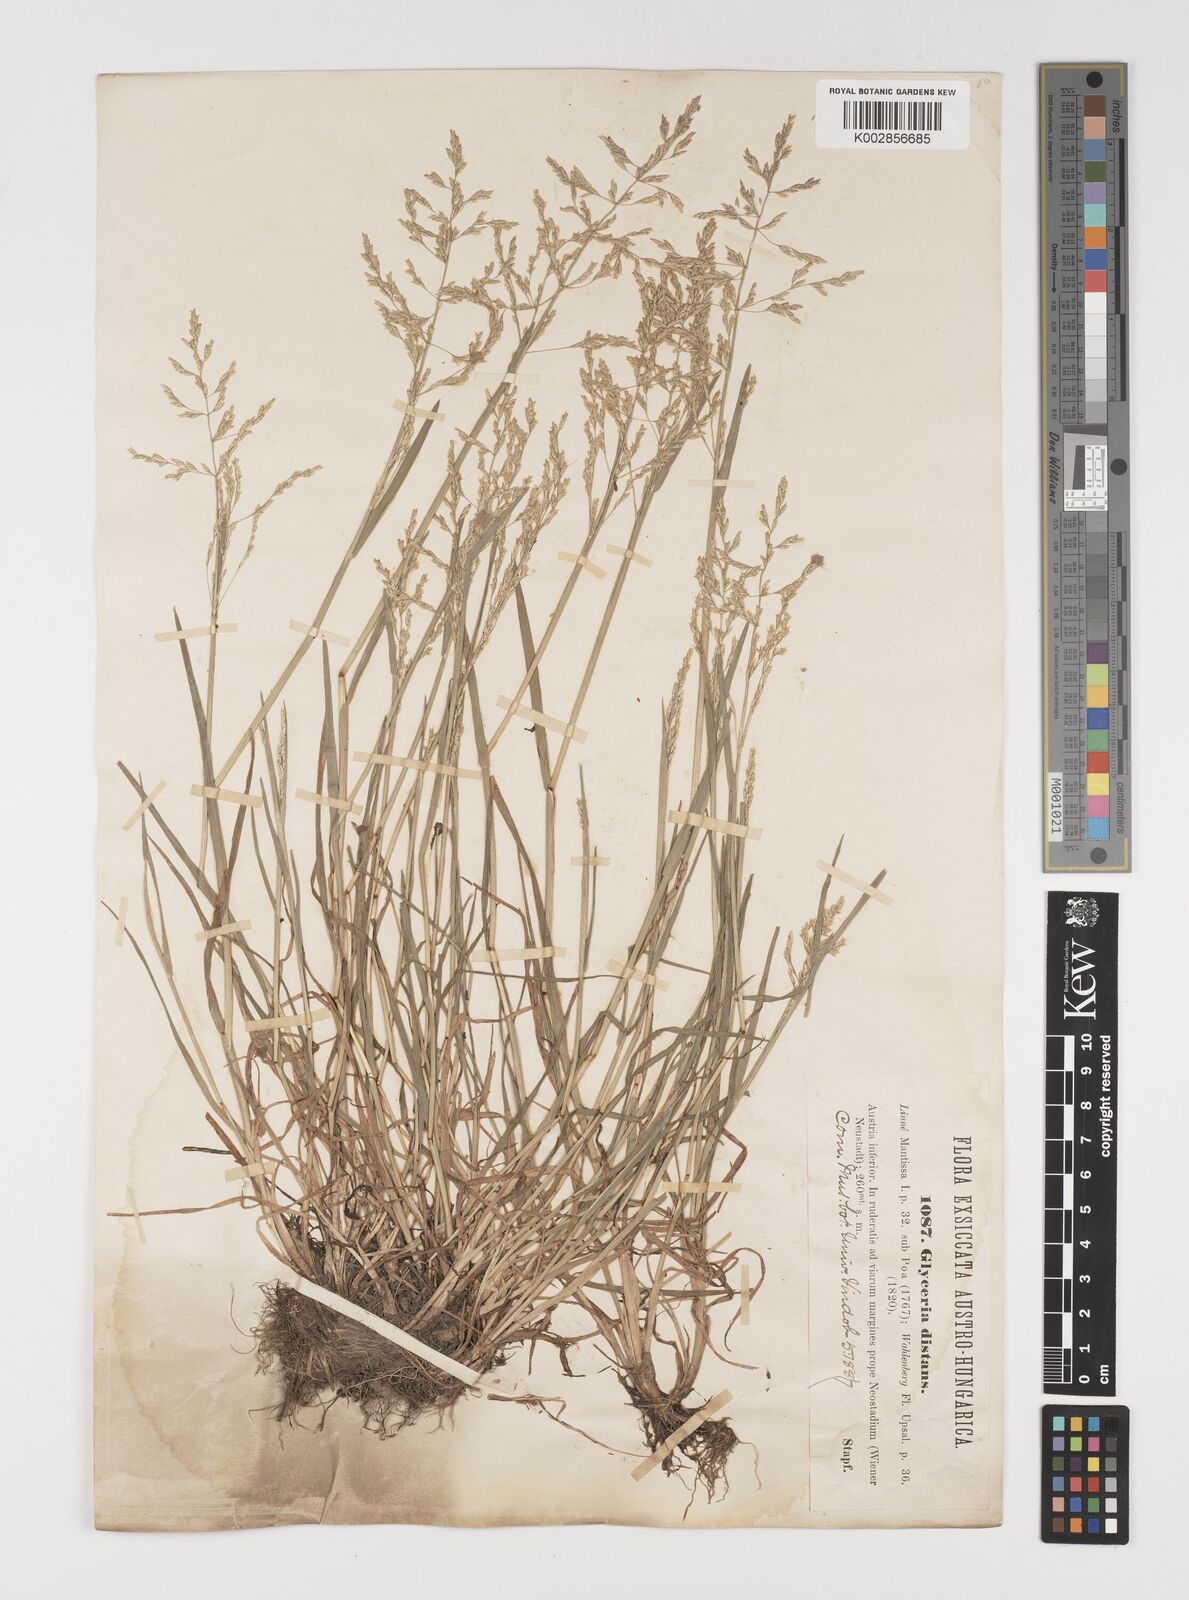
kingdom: Plantae
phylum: Tracheophyta
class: Liliopsida
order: Poales
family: Poaceae
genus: Puccinellia
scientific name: Puccinellia
